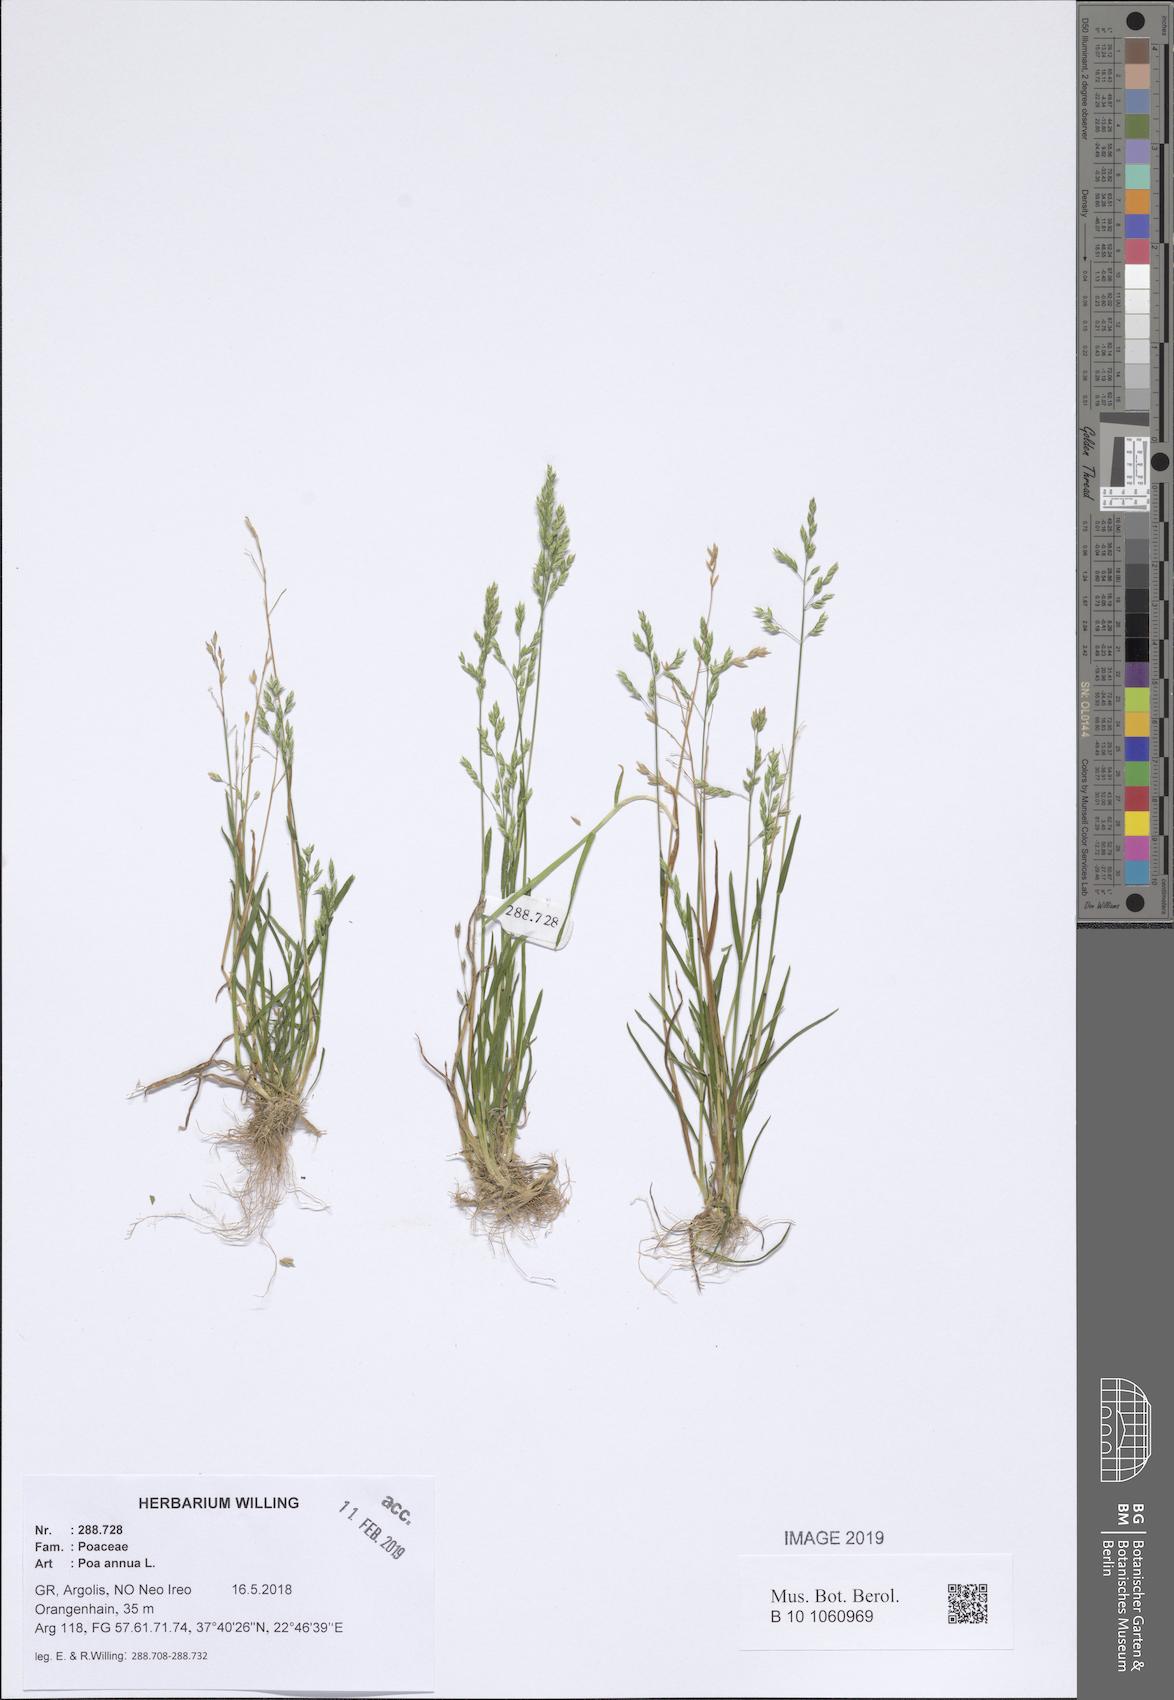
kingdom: Plantae
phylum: Tracheophyta
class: Liliopsida
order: Poales
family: Poaceae
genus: Poa
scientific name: Poa annua
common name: Annual bluegrass
